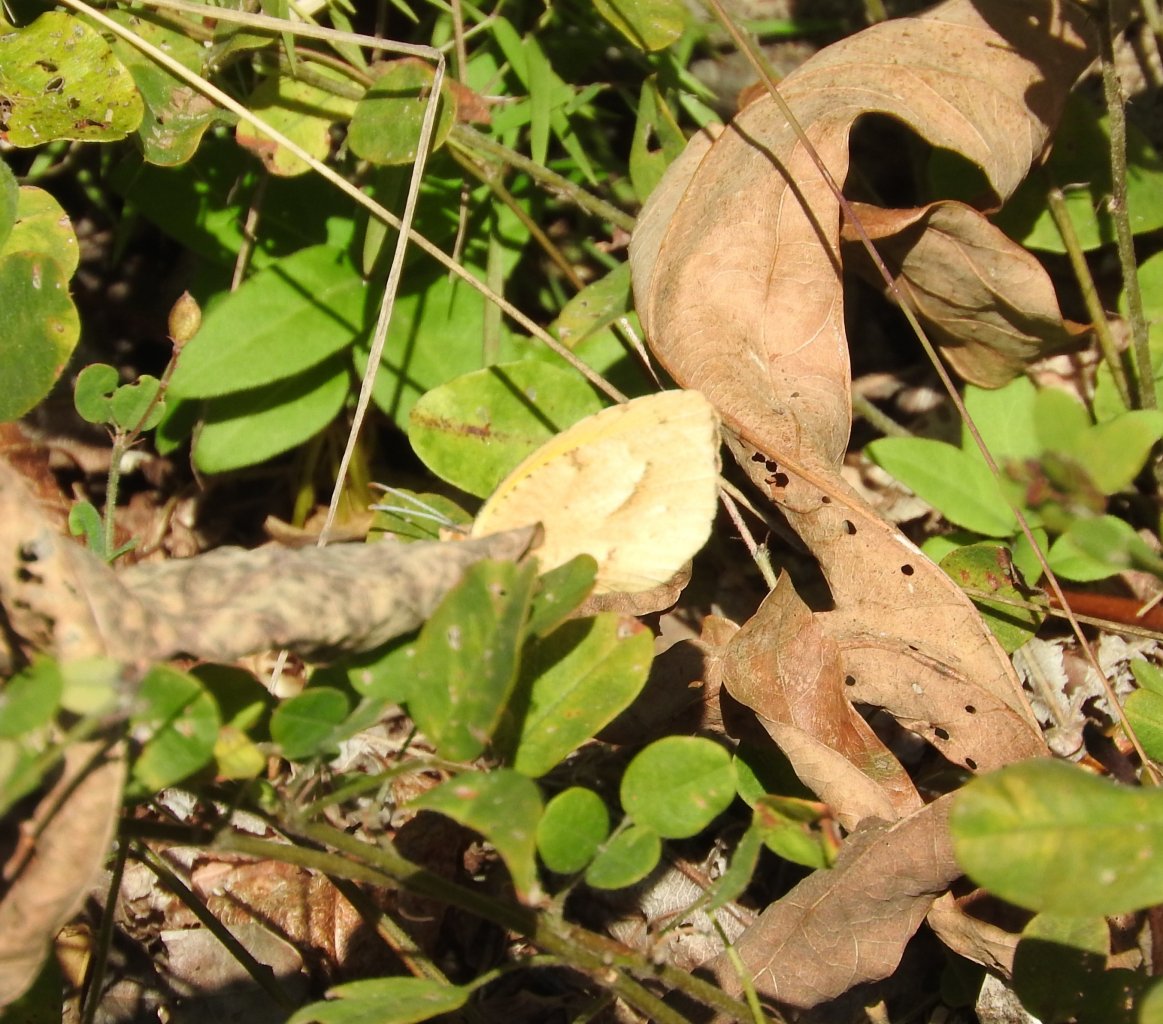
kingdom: Animalia
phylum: Arthropoda
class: Insecta
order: Lepidoptera
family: Pieridae
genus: Abaeis
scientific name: Abaeis nicippe
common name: Sleepy Orange
